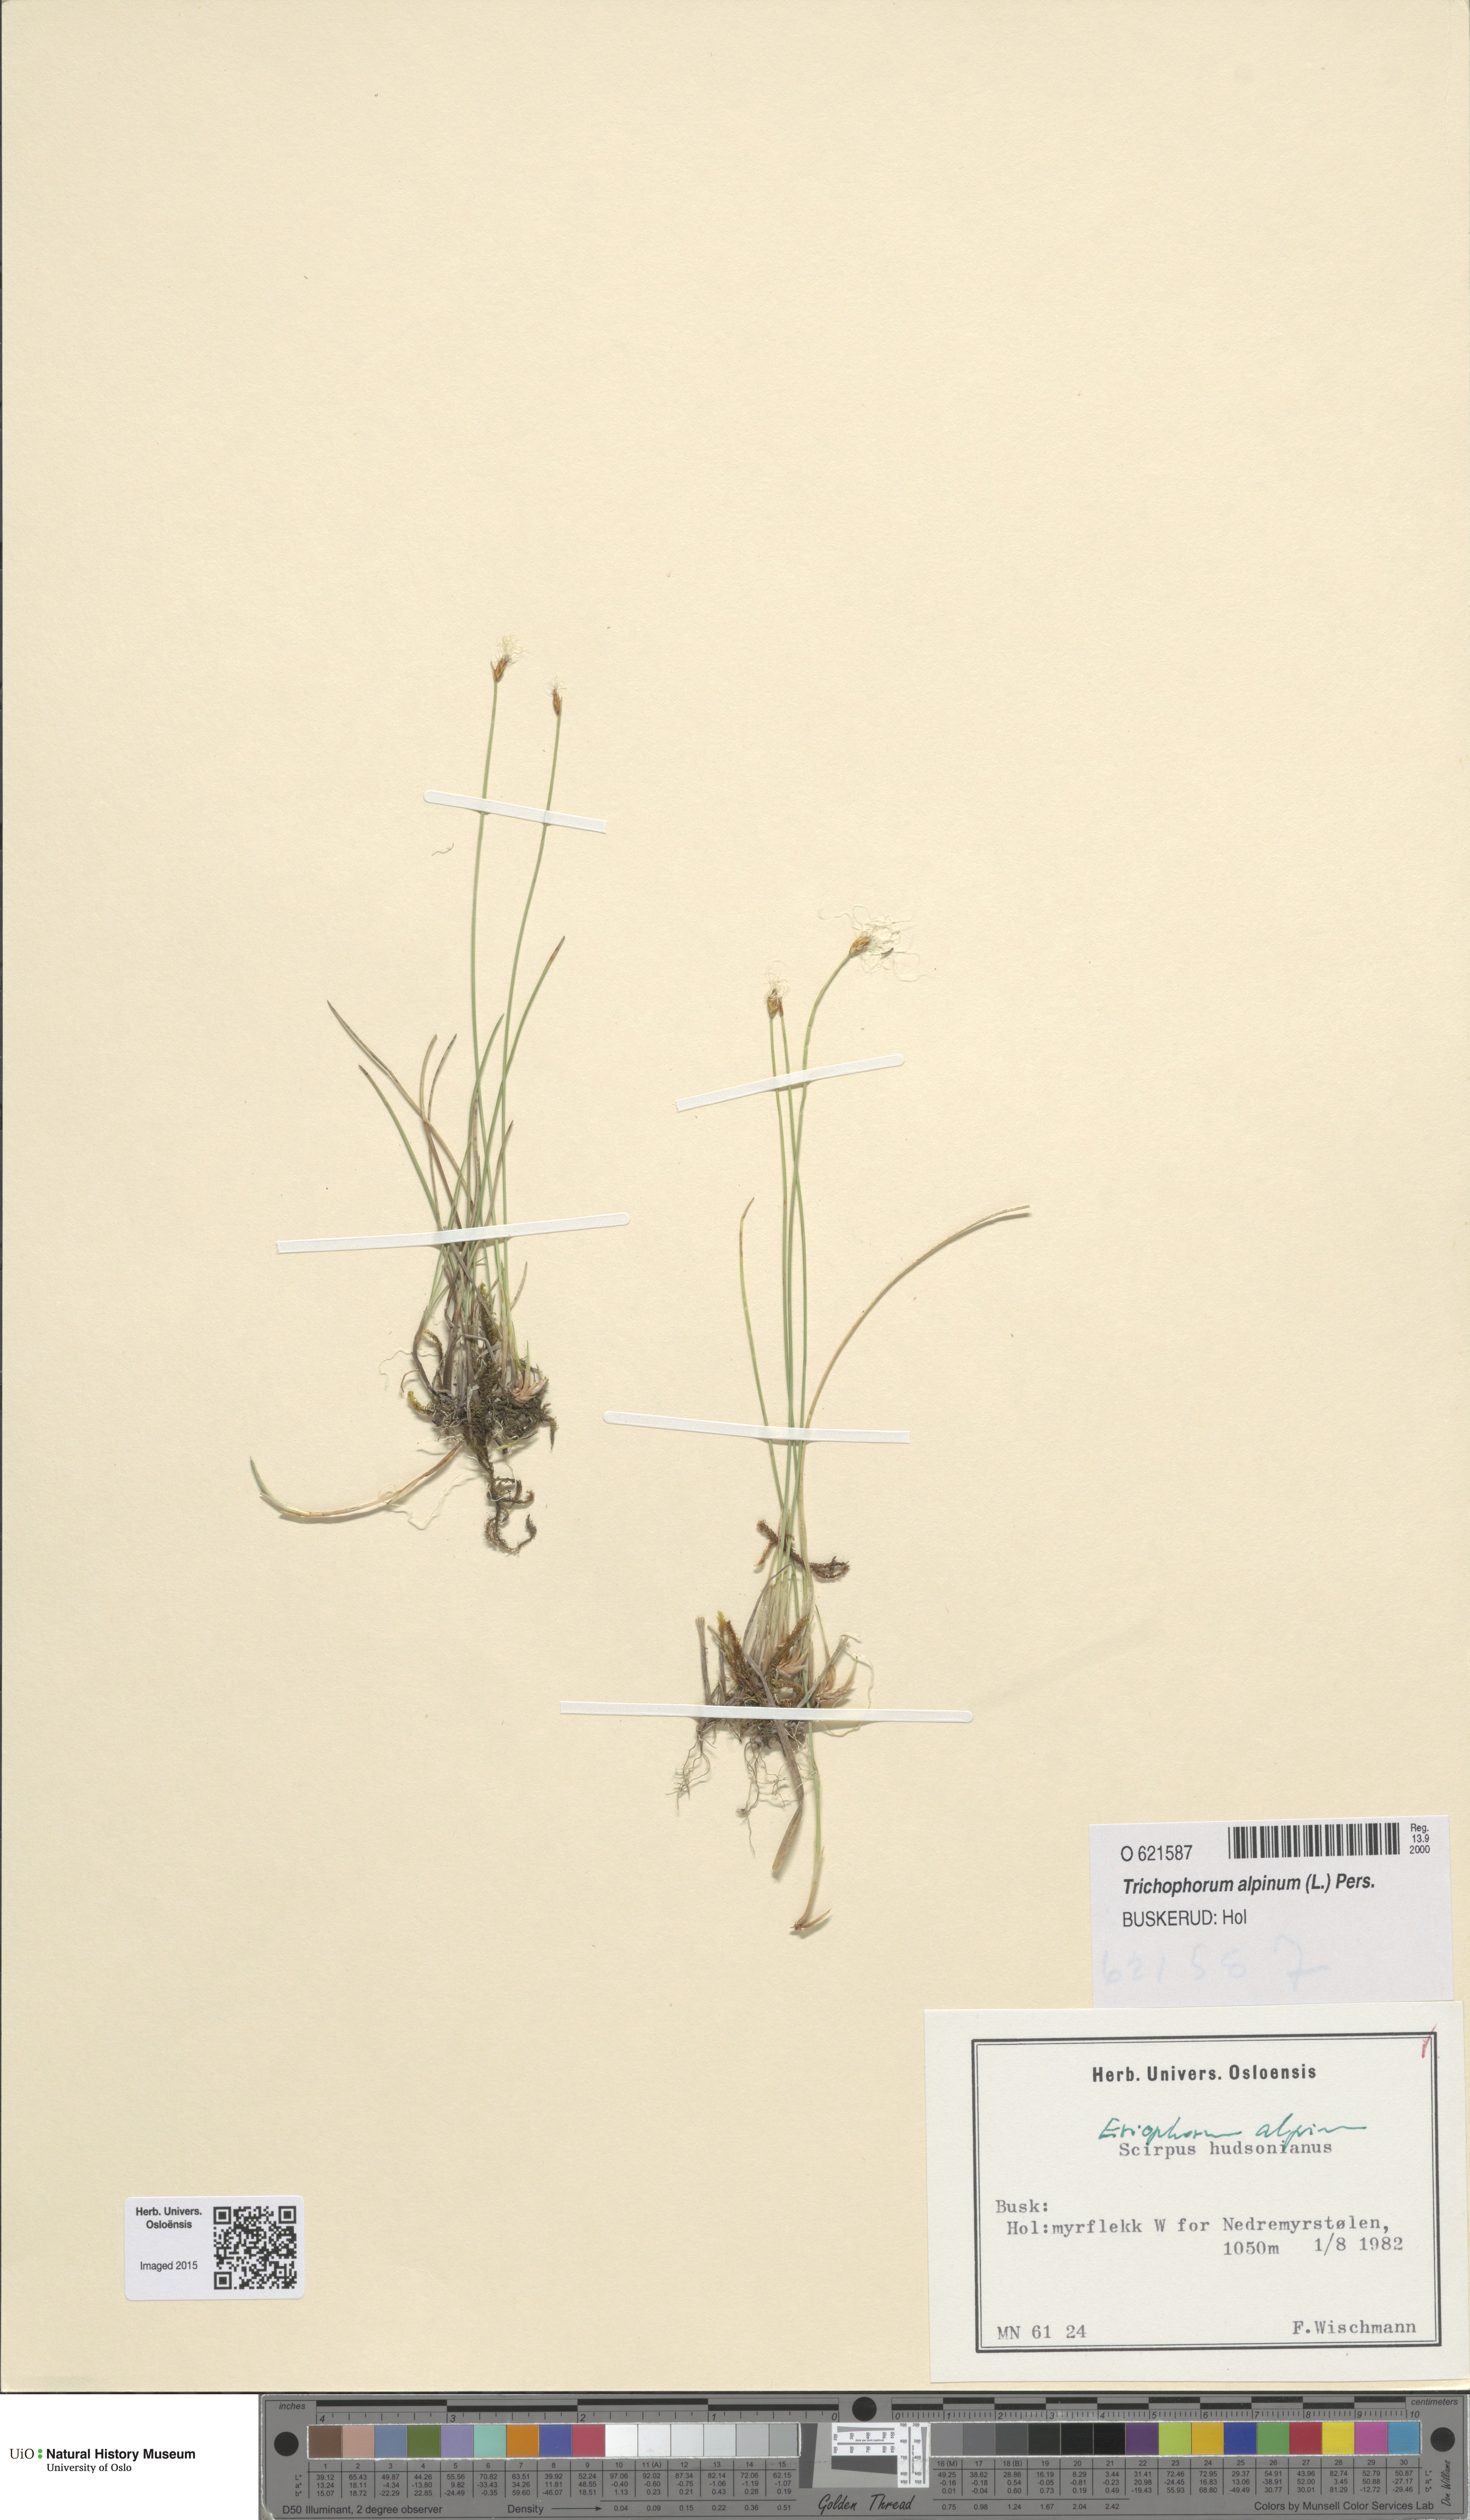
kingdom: Plantae
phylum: Tracheophyta
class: Liliopsida
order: Poales
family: Cyperaceae
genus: Trichophorum
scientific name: Trichophorum alpinum
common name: Alpine bulrush
